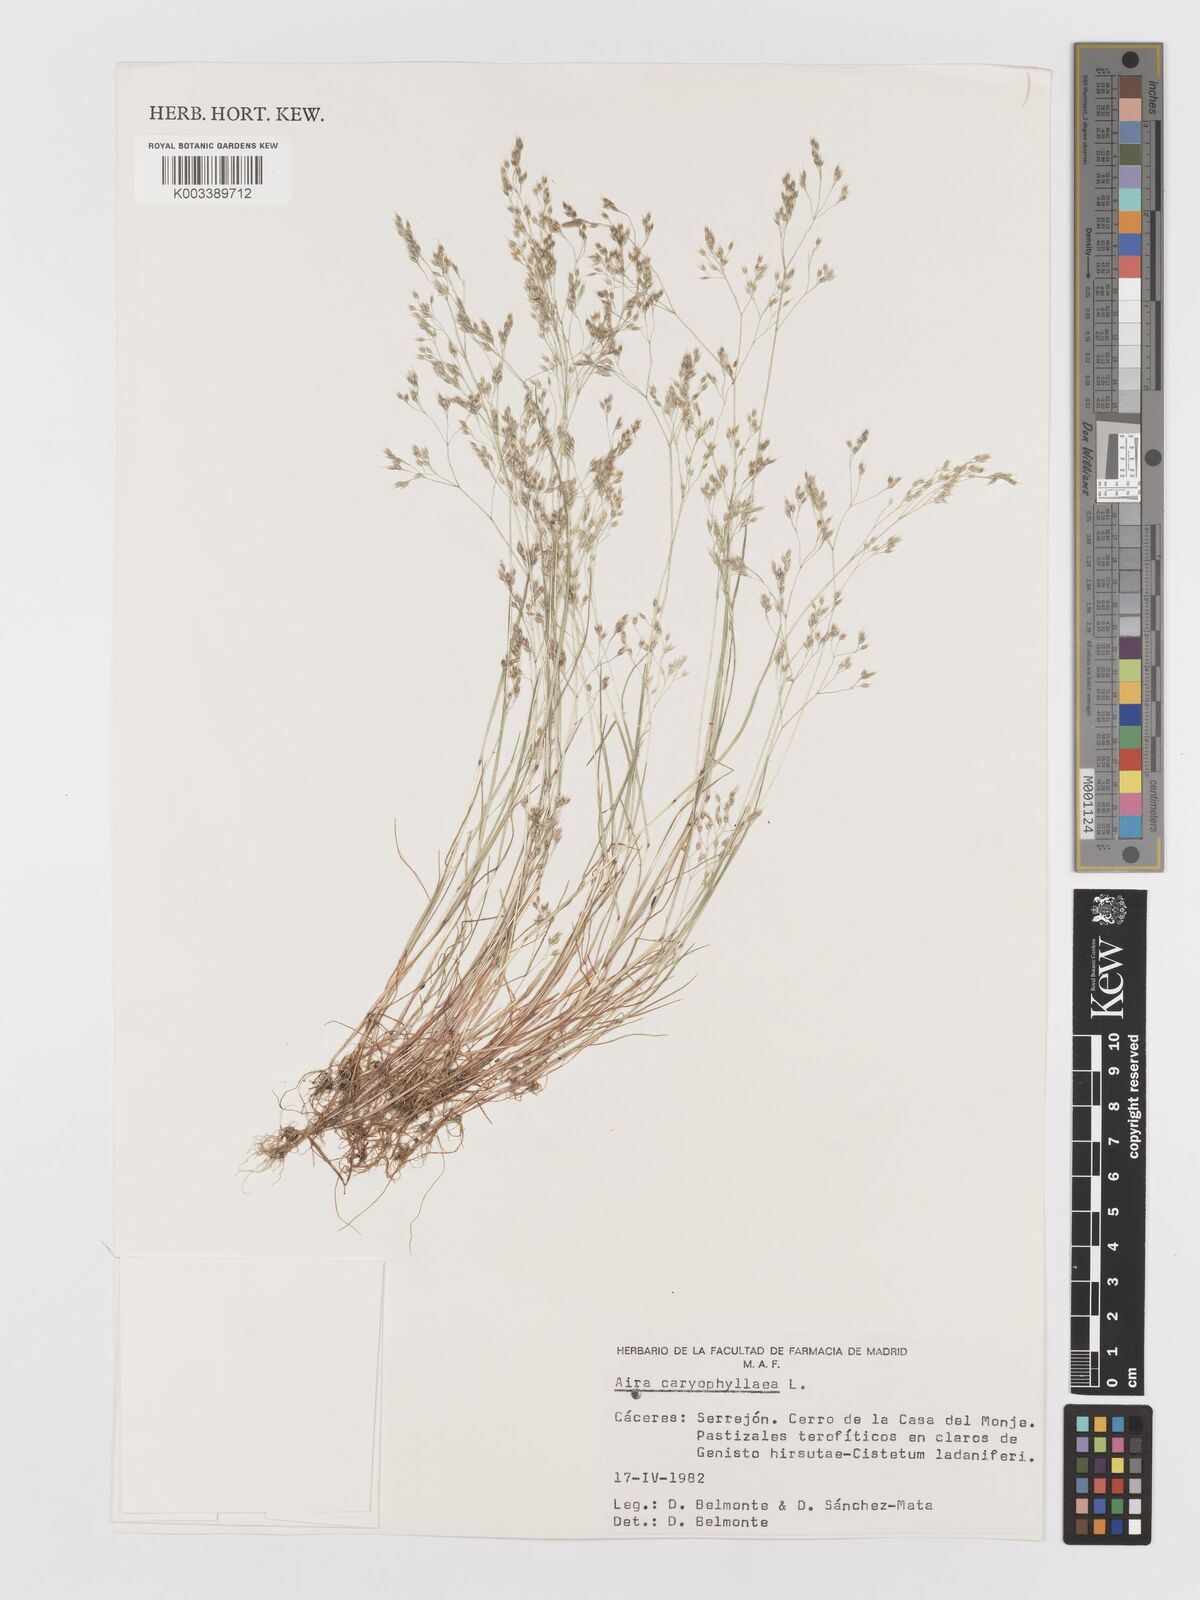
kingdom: Plantae
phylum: Tracheophyta
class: Liliopsida
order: Poales
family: Poaceae
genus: Aira
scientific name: Aira caryophyllea
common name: Silver hairgrass
